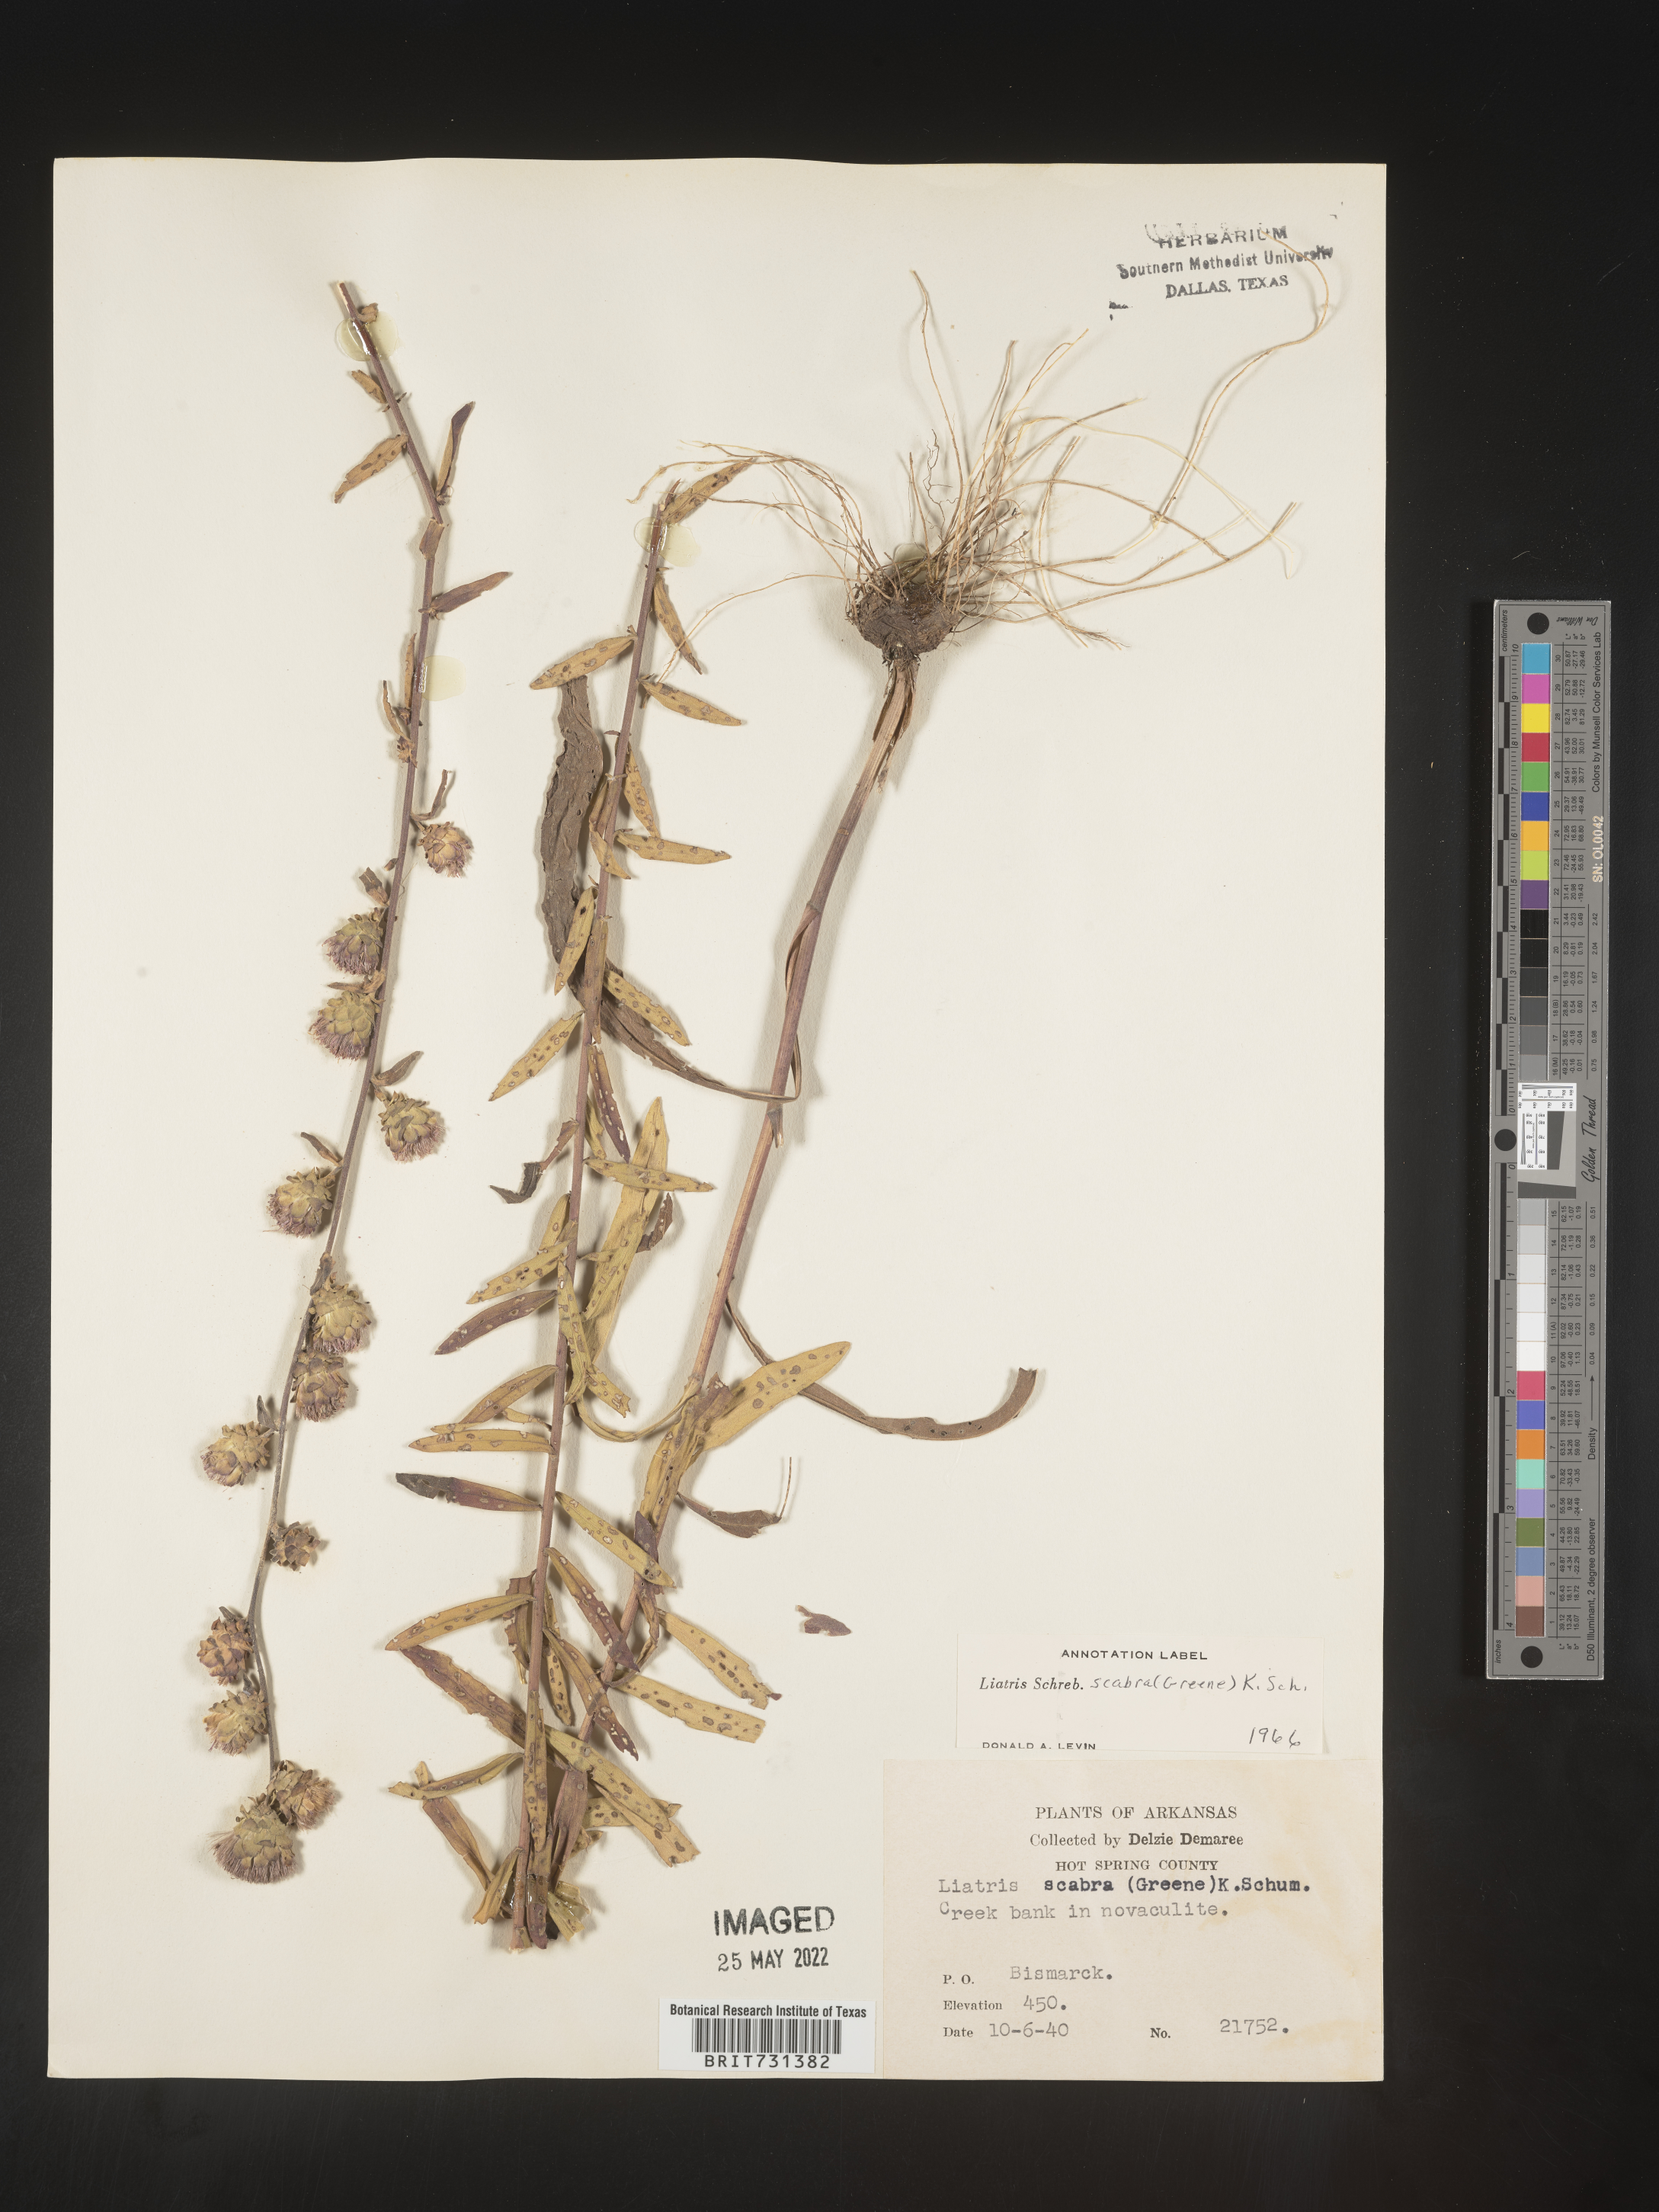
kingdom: Plantae
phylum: Tracheophyta
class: Magnoliopsida
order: Asterales
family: Asteraceae
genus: Liatris
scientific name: Liatris squarrulosa
